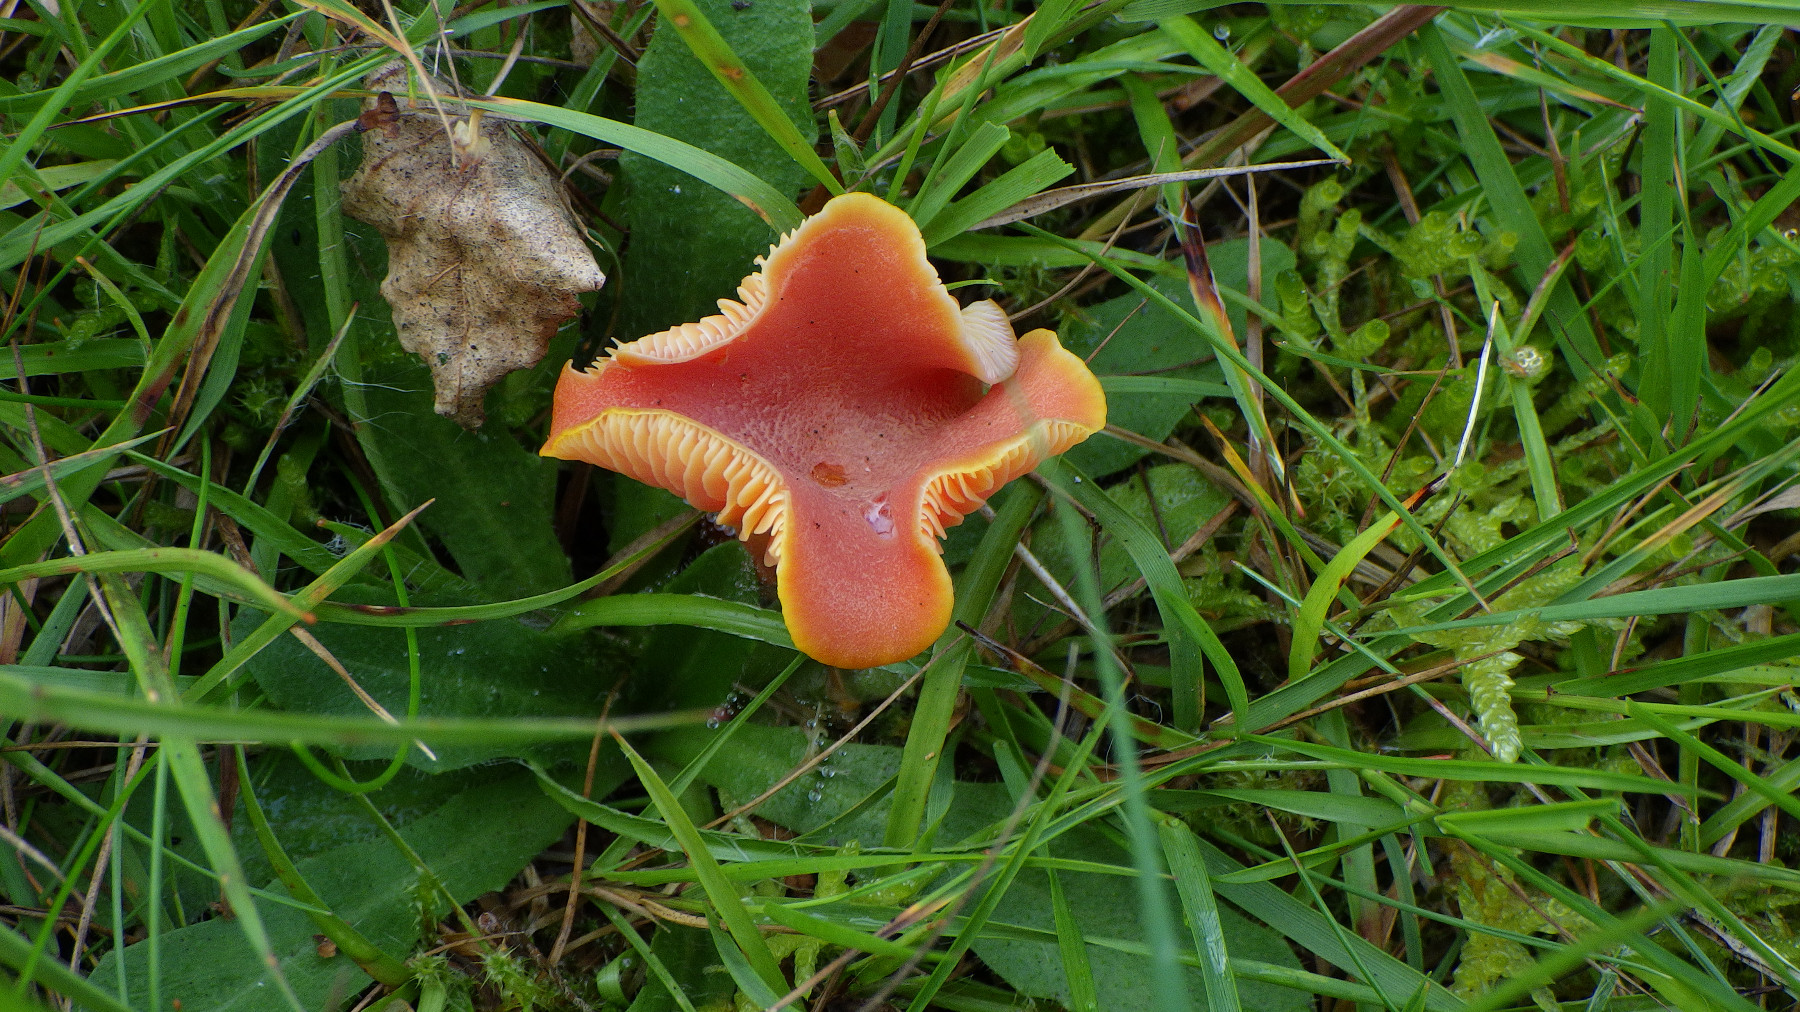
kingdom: Fungi
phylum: Basidiomycota
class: Agaricomycetes
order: Agaricales
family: Hygrophoraceae
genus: Hygrocybe
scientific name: Hygrocybe
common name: vokshat
